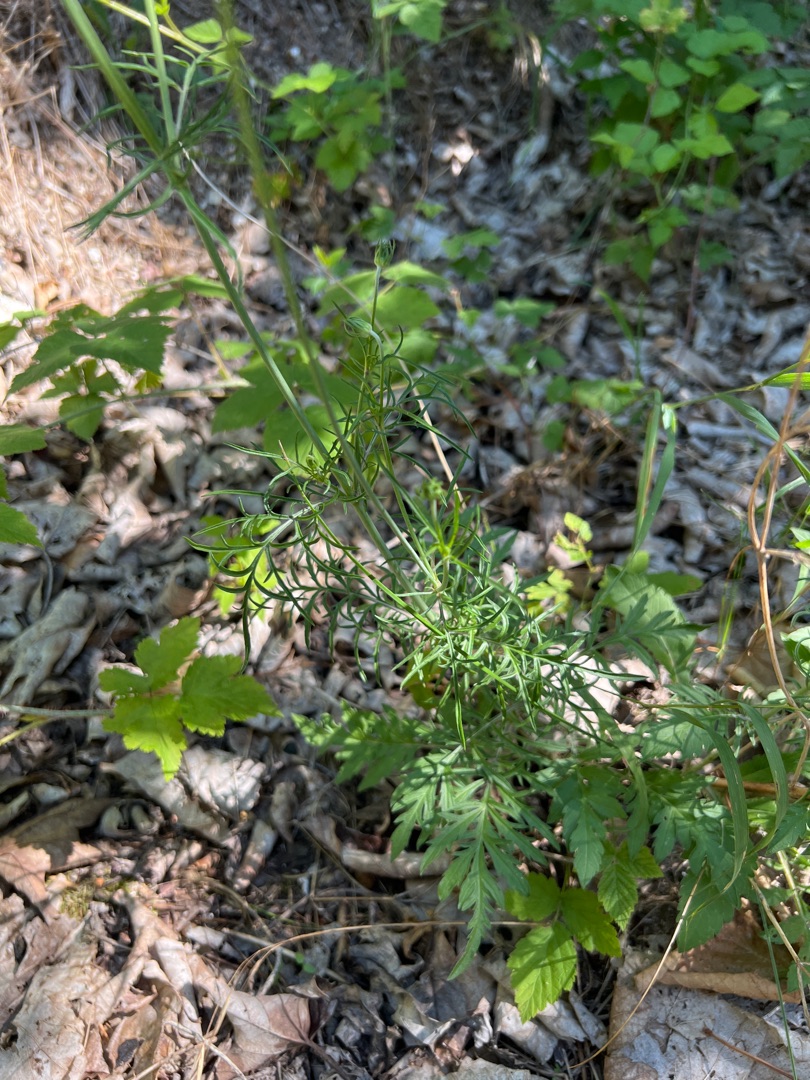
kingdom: Plantae
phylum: Tracheophyta
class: Magnoliopsida
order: Dipsacales
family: Caprifoliaceae
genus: Scabiosa
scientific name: Scabiosa columbaria
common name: Due-skabiose
